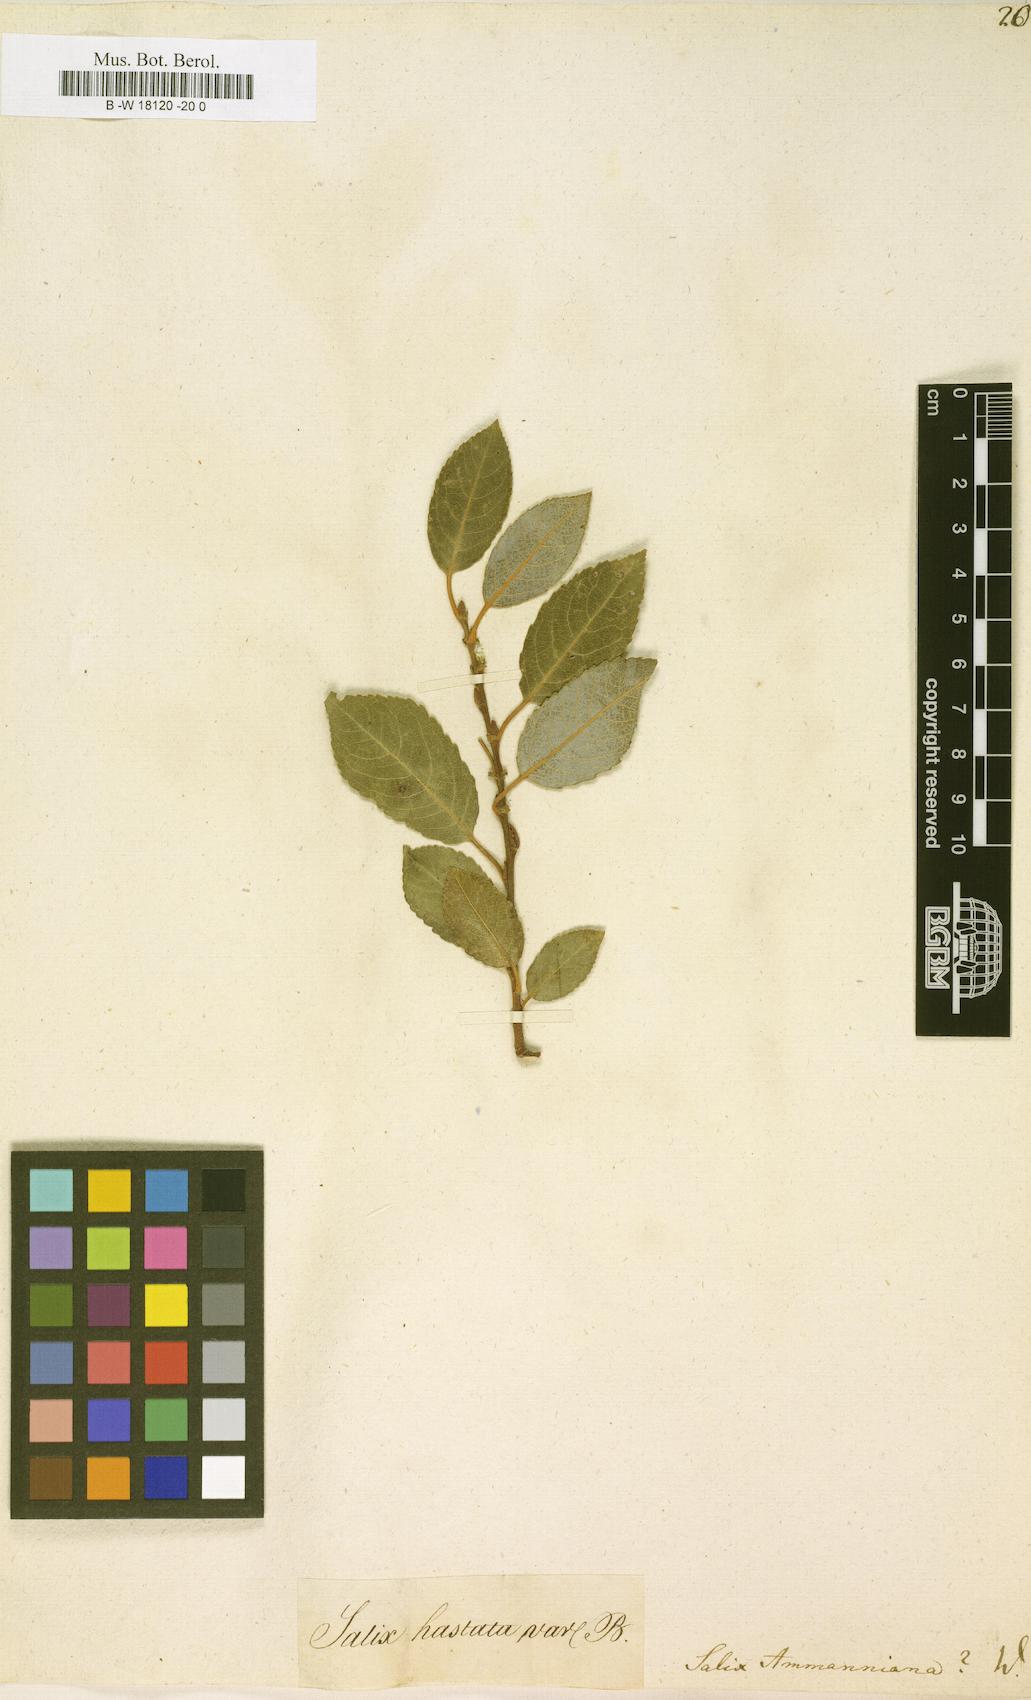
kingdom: Plantae
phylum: Tracheophyta
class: Magnoliopsida
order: Malpighiales
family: Salicaceae
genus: Salix
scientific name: Salix myrsinifolia
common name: Dark-leaved willow
